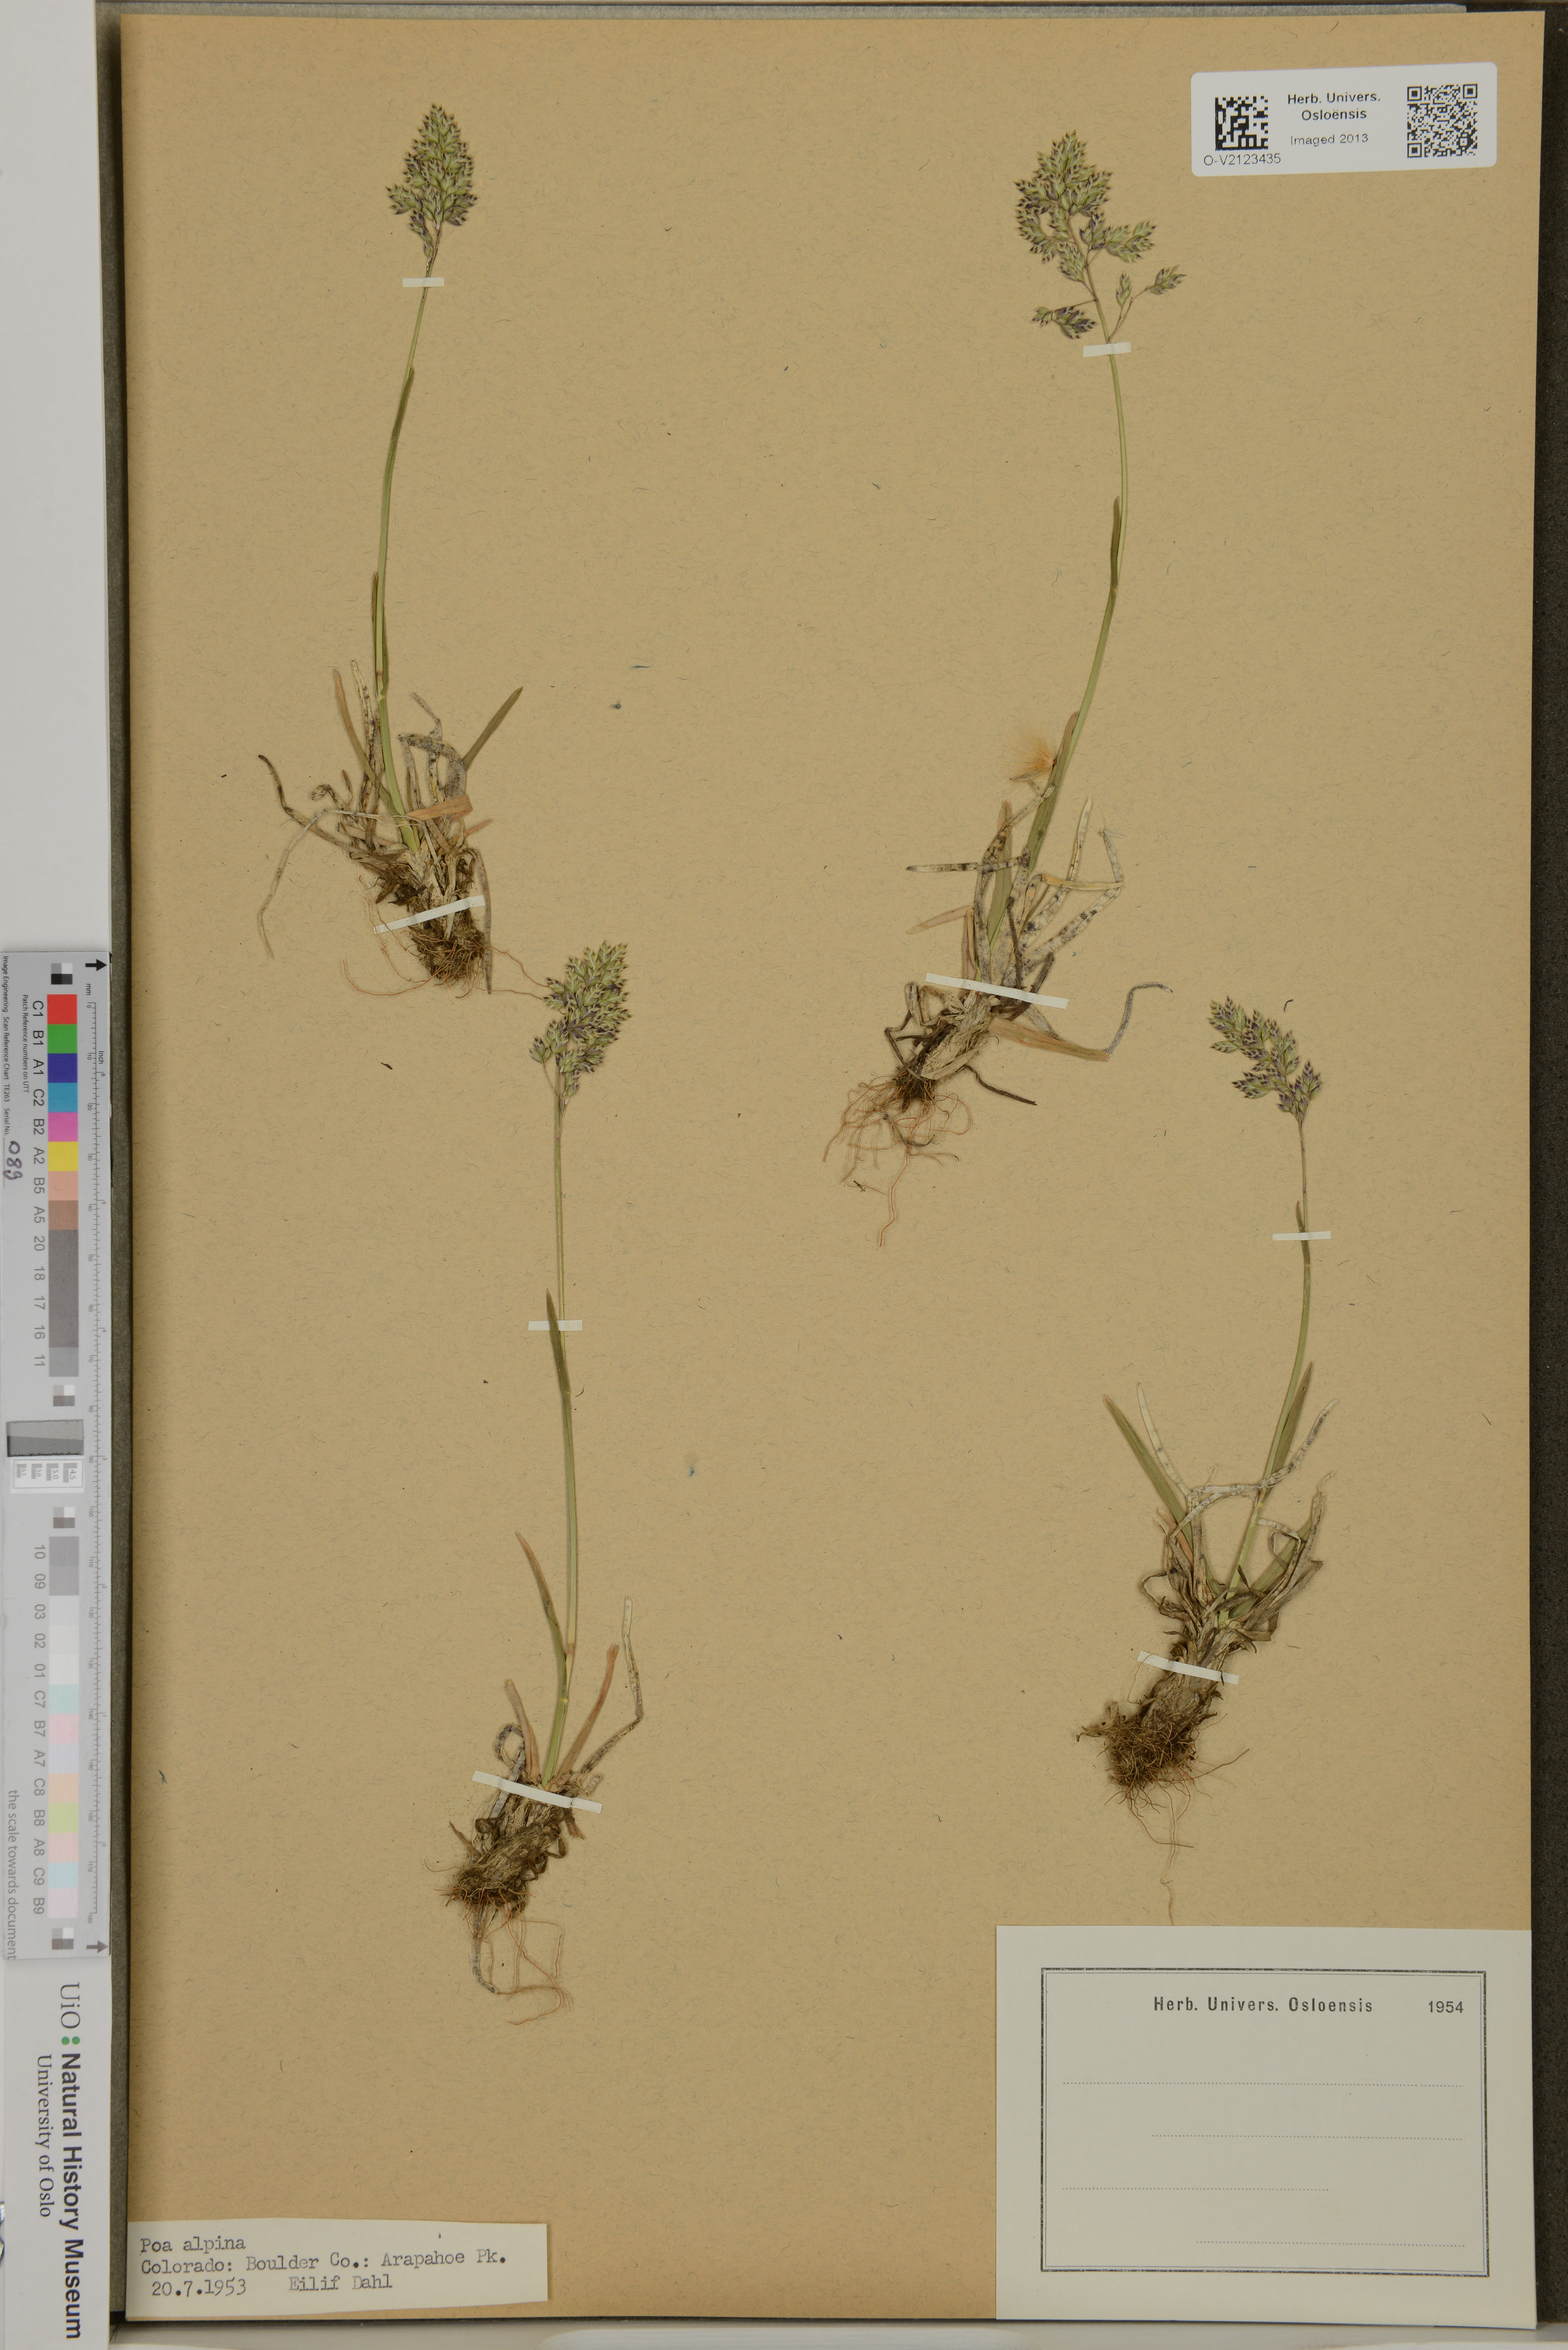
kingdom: Plantae
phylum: Tracheophyta
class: Liliopsida
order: Poales
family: Poaceae
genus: Poa
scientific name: Poa alpina
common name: Alpine bluegrass
